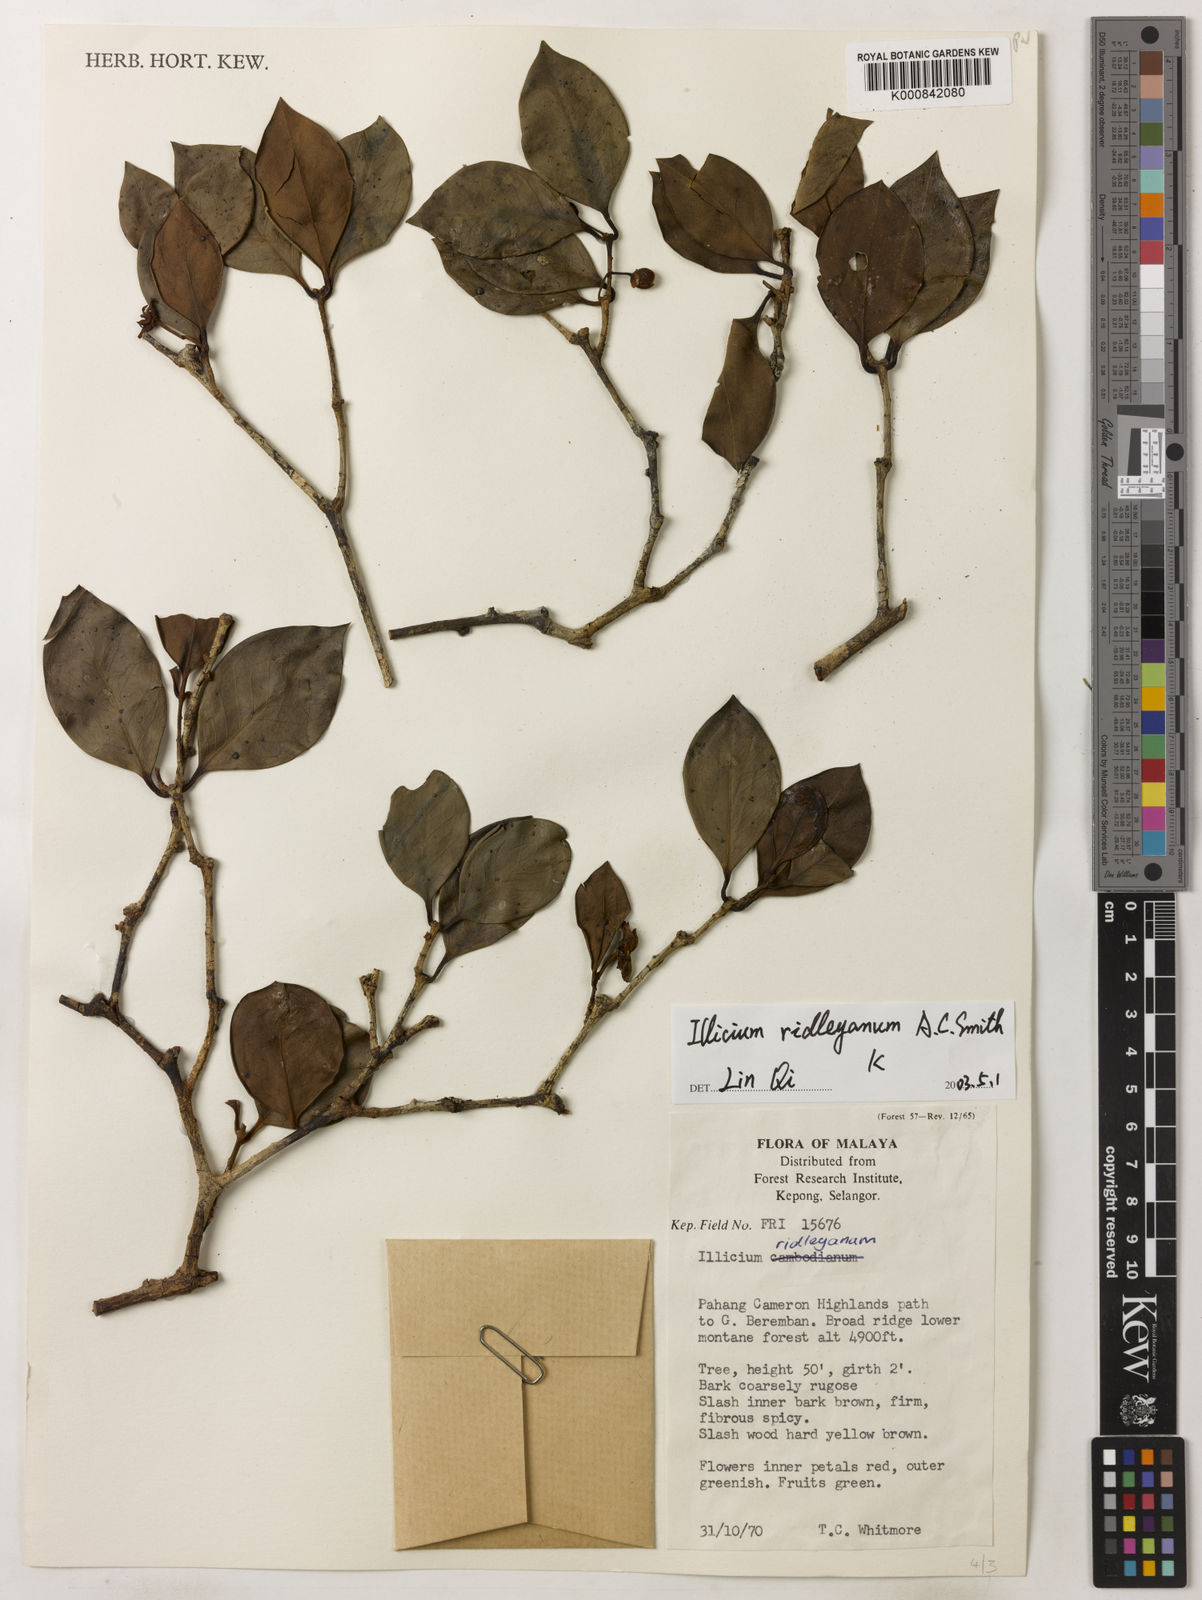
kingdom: Plantae
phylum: Tracheophyta
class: Magnoliopsida
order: Austrobaileyales
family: Schisandraceae
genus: Illicium
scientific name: Illicium ridleyanum
